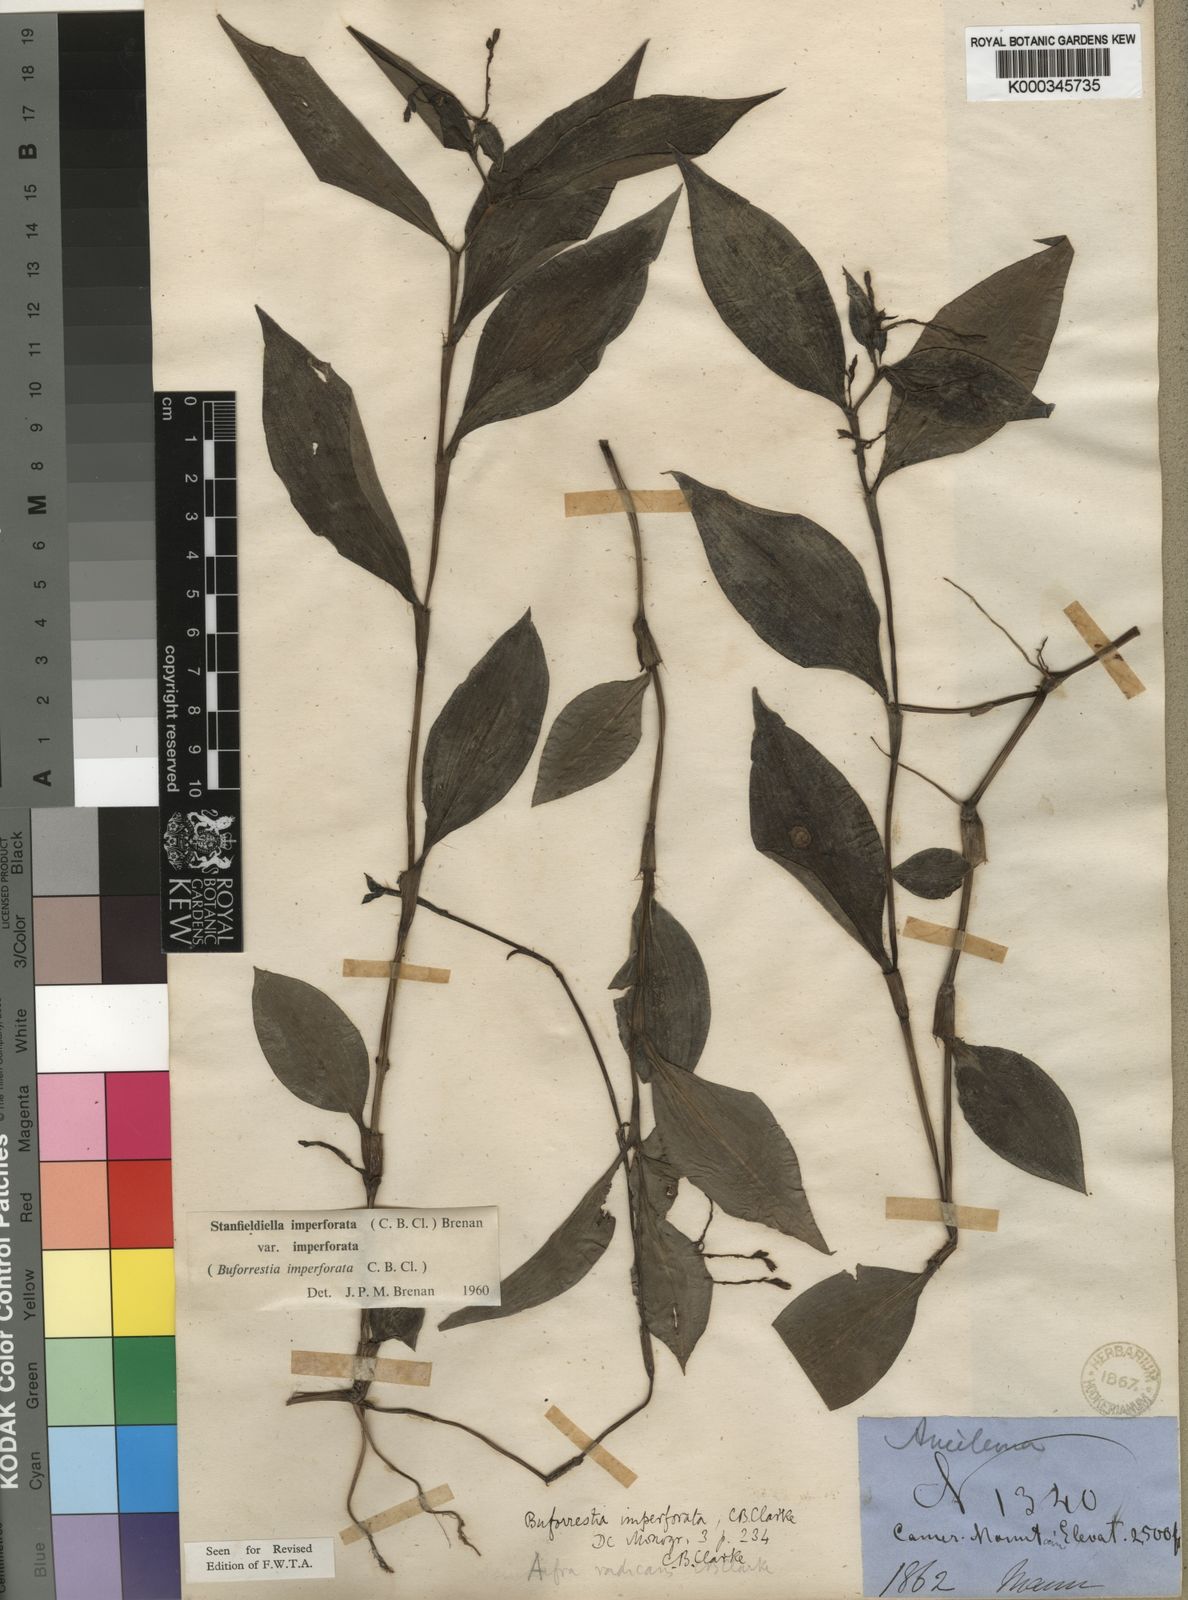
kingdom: Plantae
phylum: Tracheophyta
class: Liliopsida
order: Commelinales
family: Commelinaceae
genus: Stanfieldiella
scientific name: Stanfieldiella imperforata
